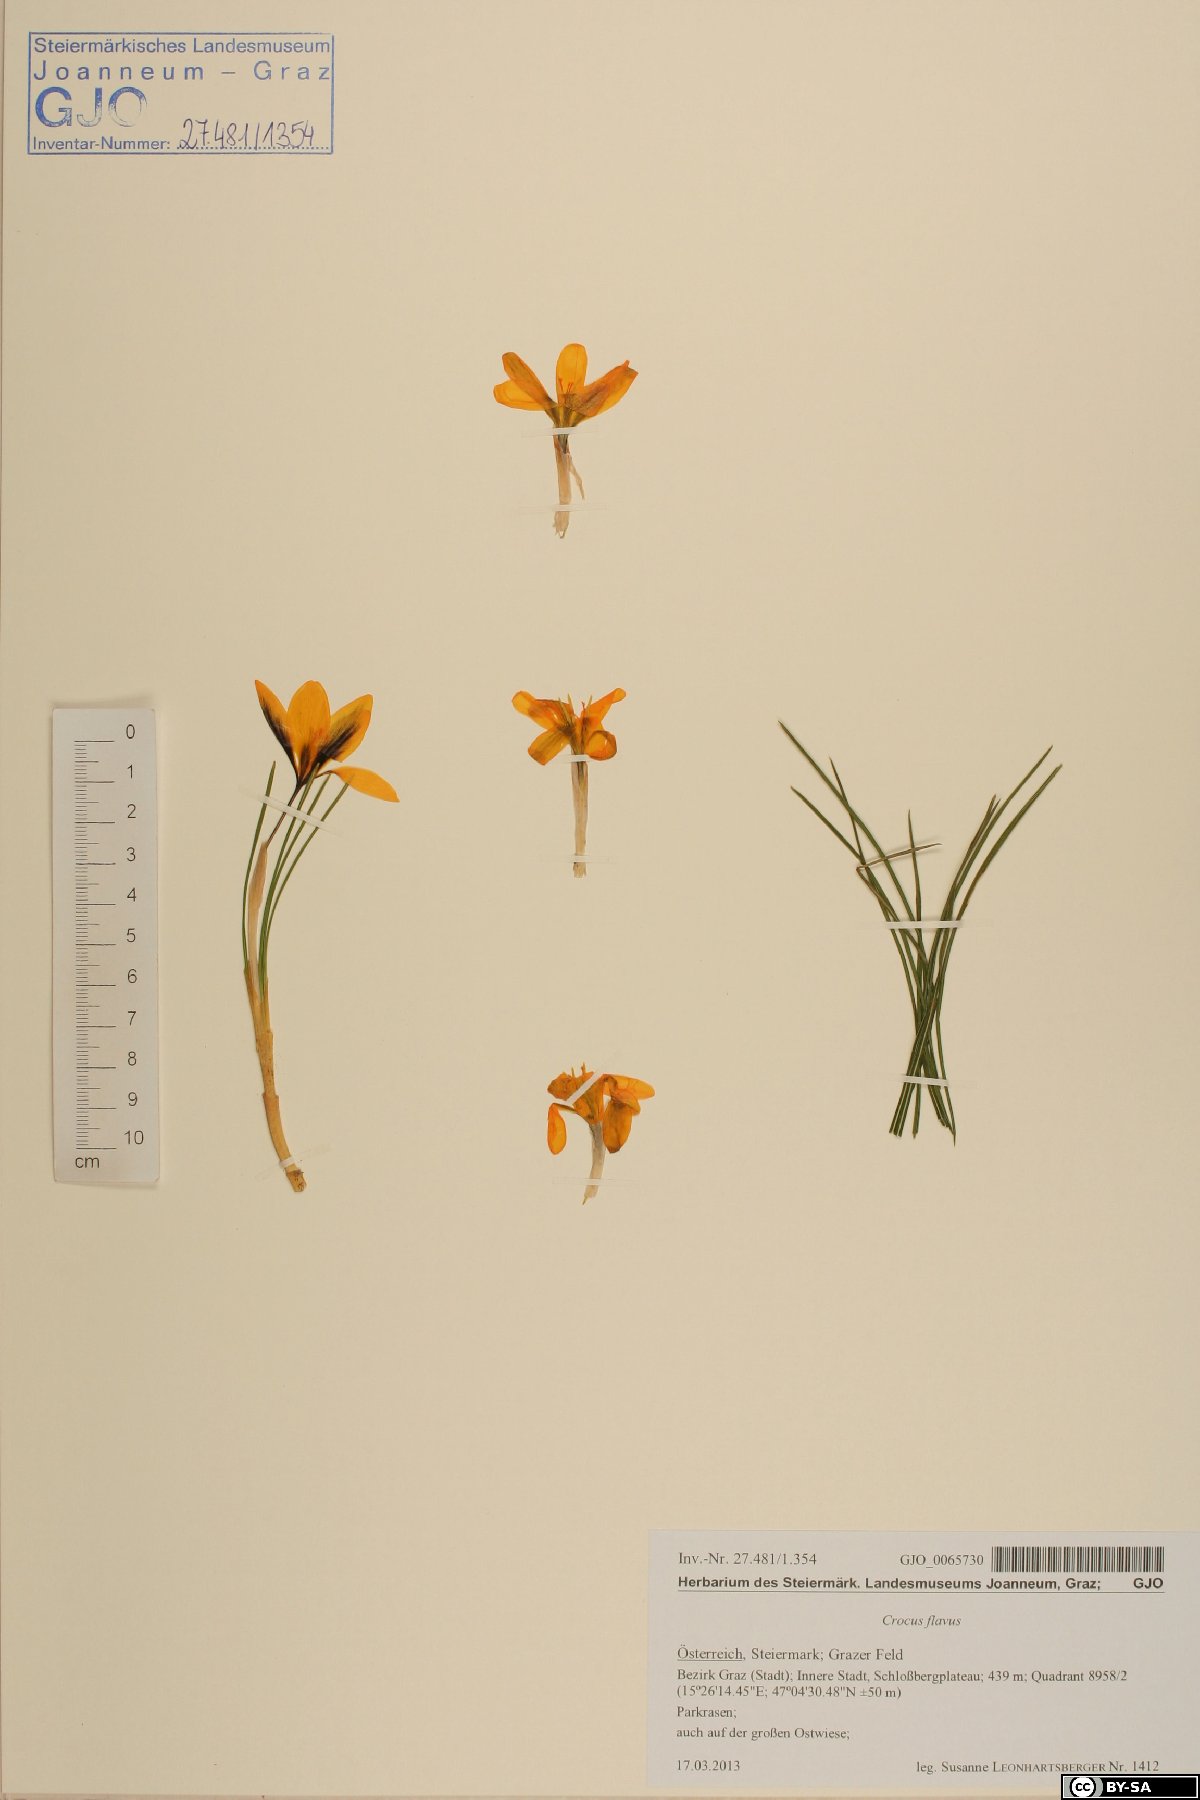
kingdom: Plantae
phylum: Tracheophyta
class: Liliopsida
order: Asparagales
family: Iridaceae
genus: Crocus
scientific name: Crocus flavus
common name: Yellow crocus
